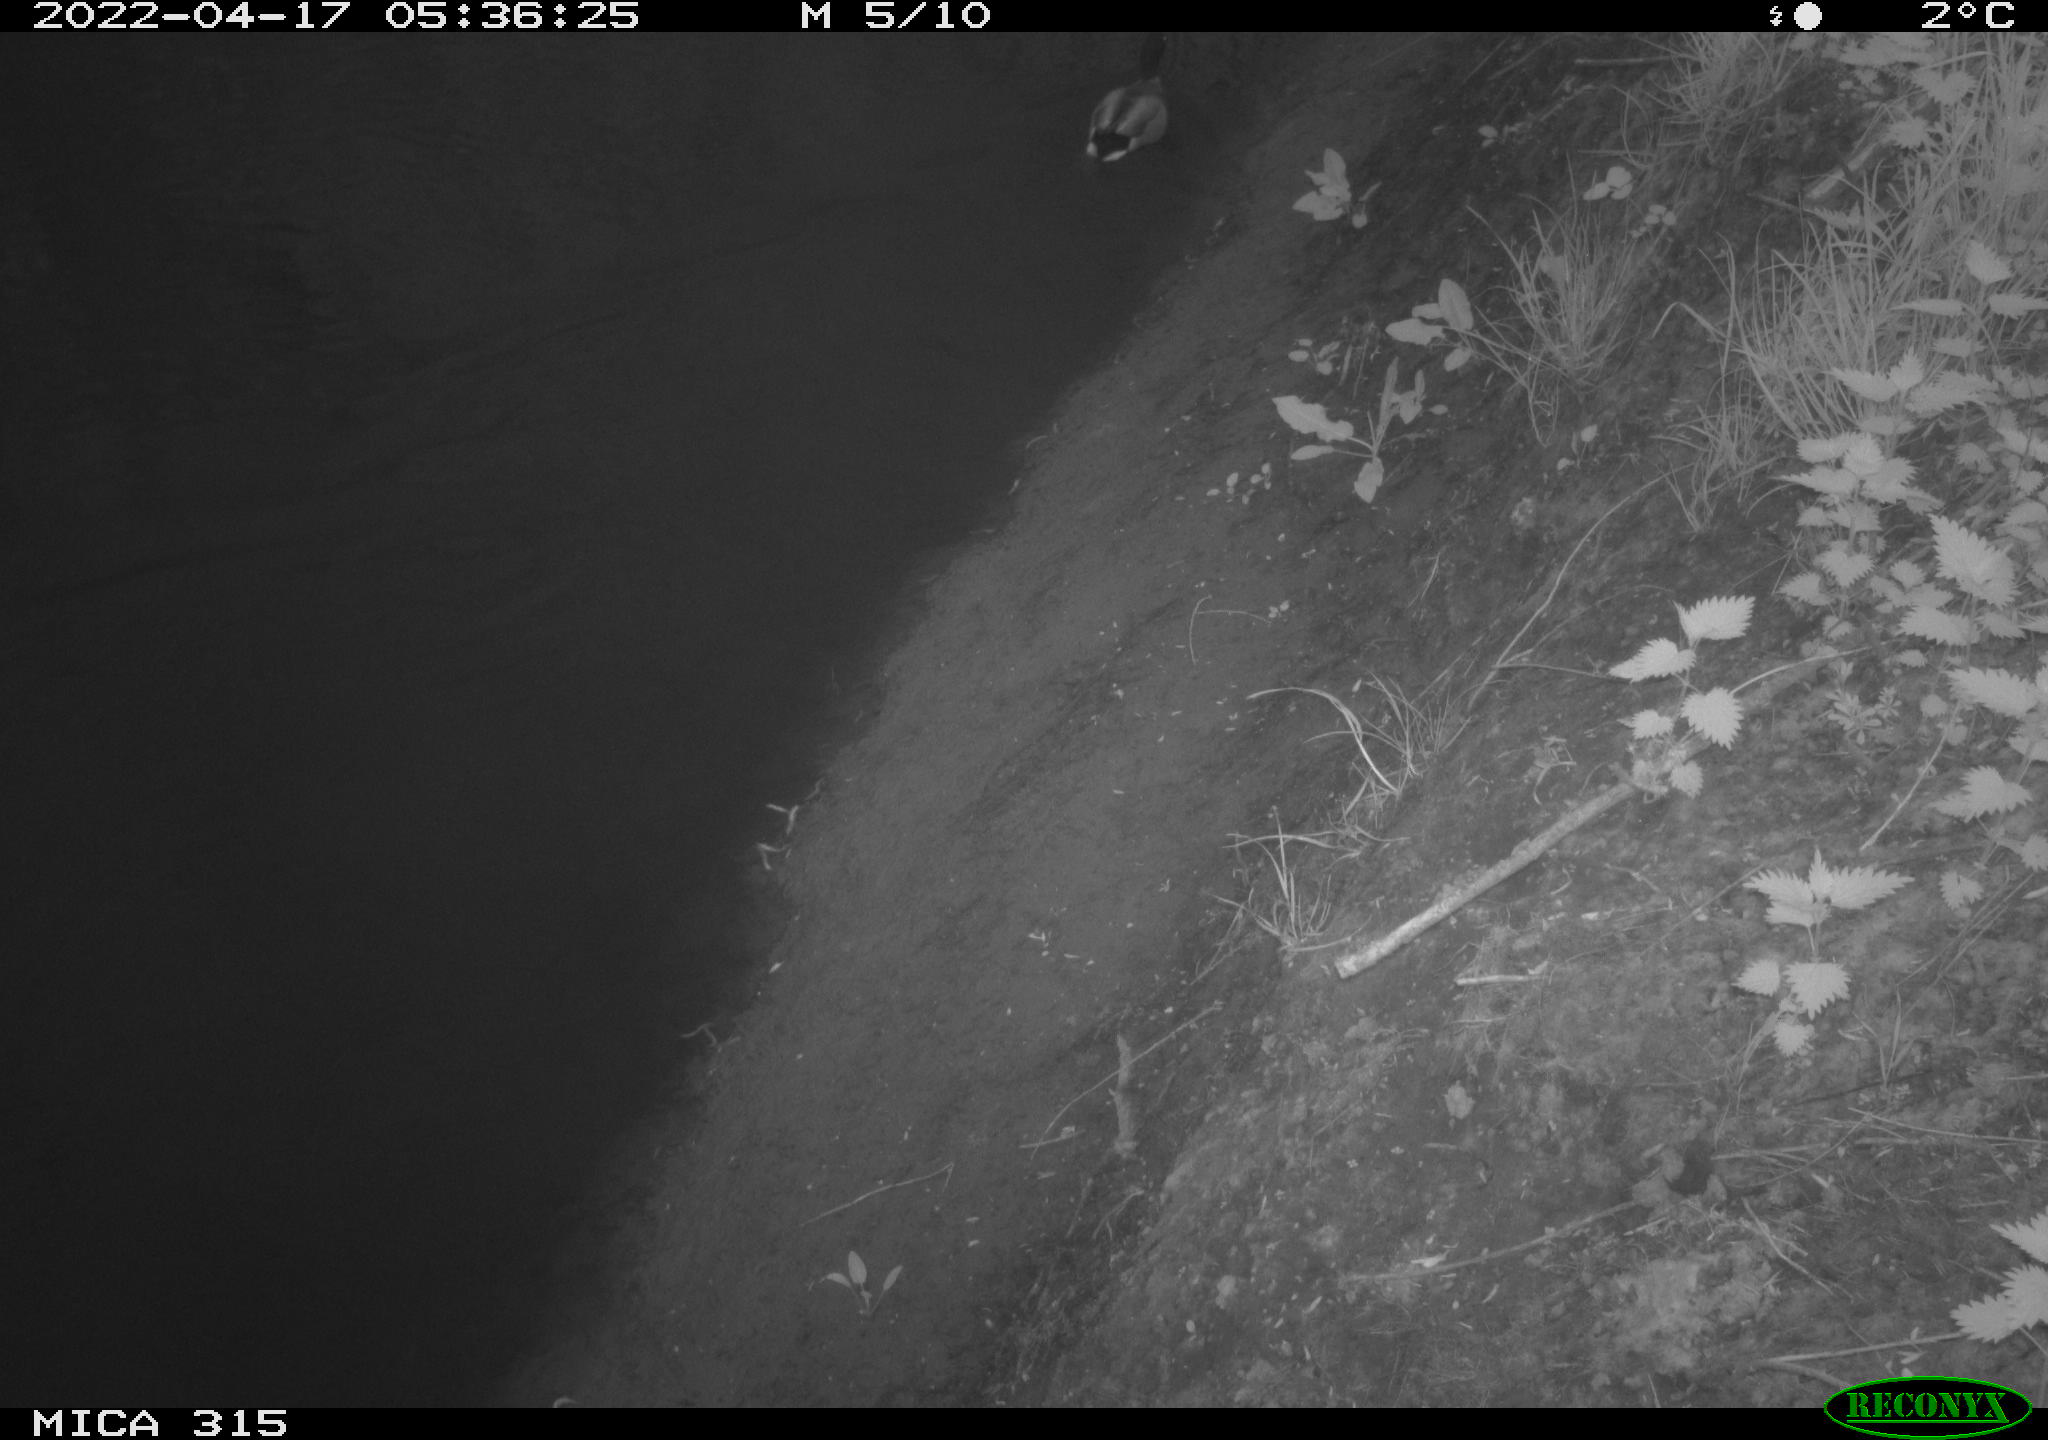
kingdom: Animalia
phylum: Chordata
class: Aves
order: Anseriformes
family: Anatidae
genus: Anas
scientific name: Anas platyrhynchos
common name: Mallard
